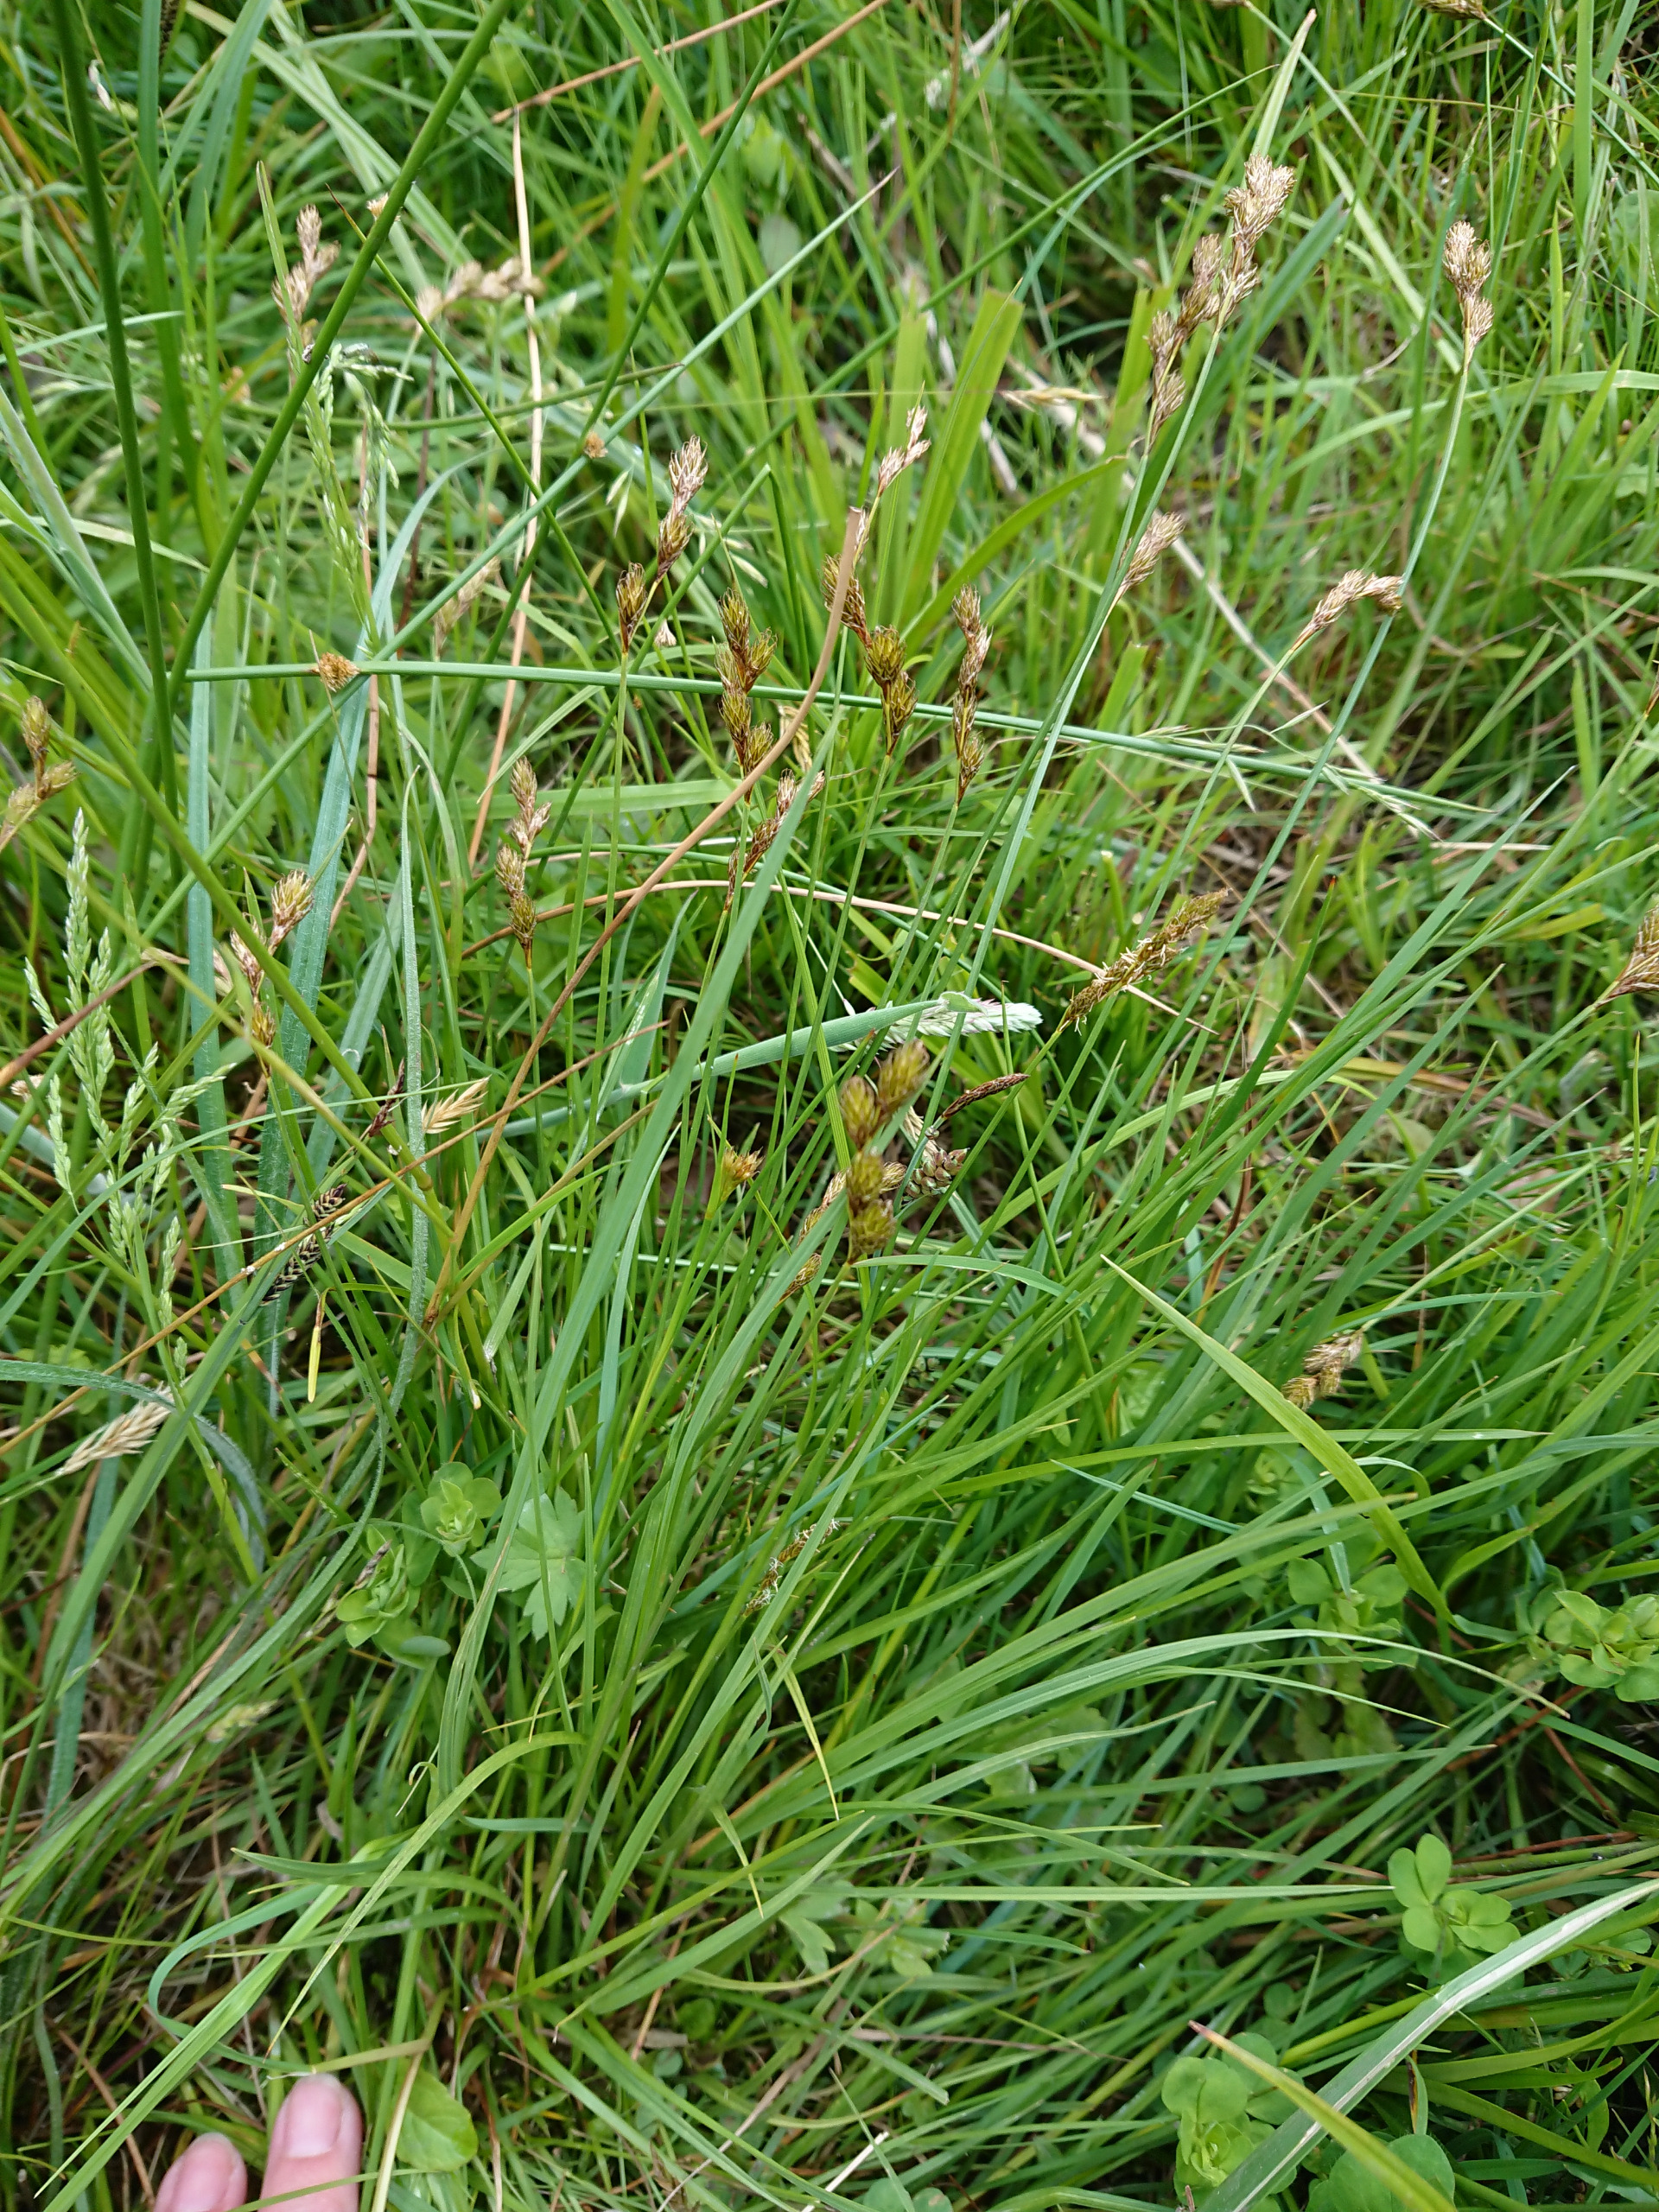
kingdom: Plantae
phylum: Tracheophyta
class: Liliopsida
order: Poales
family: Cyperaceae
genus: Carex
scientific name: Carex leporina
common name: Hare-star
